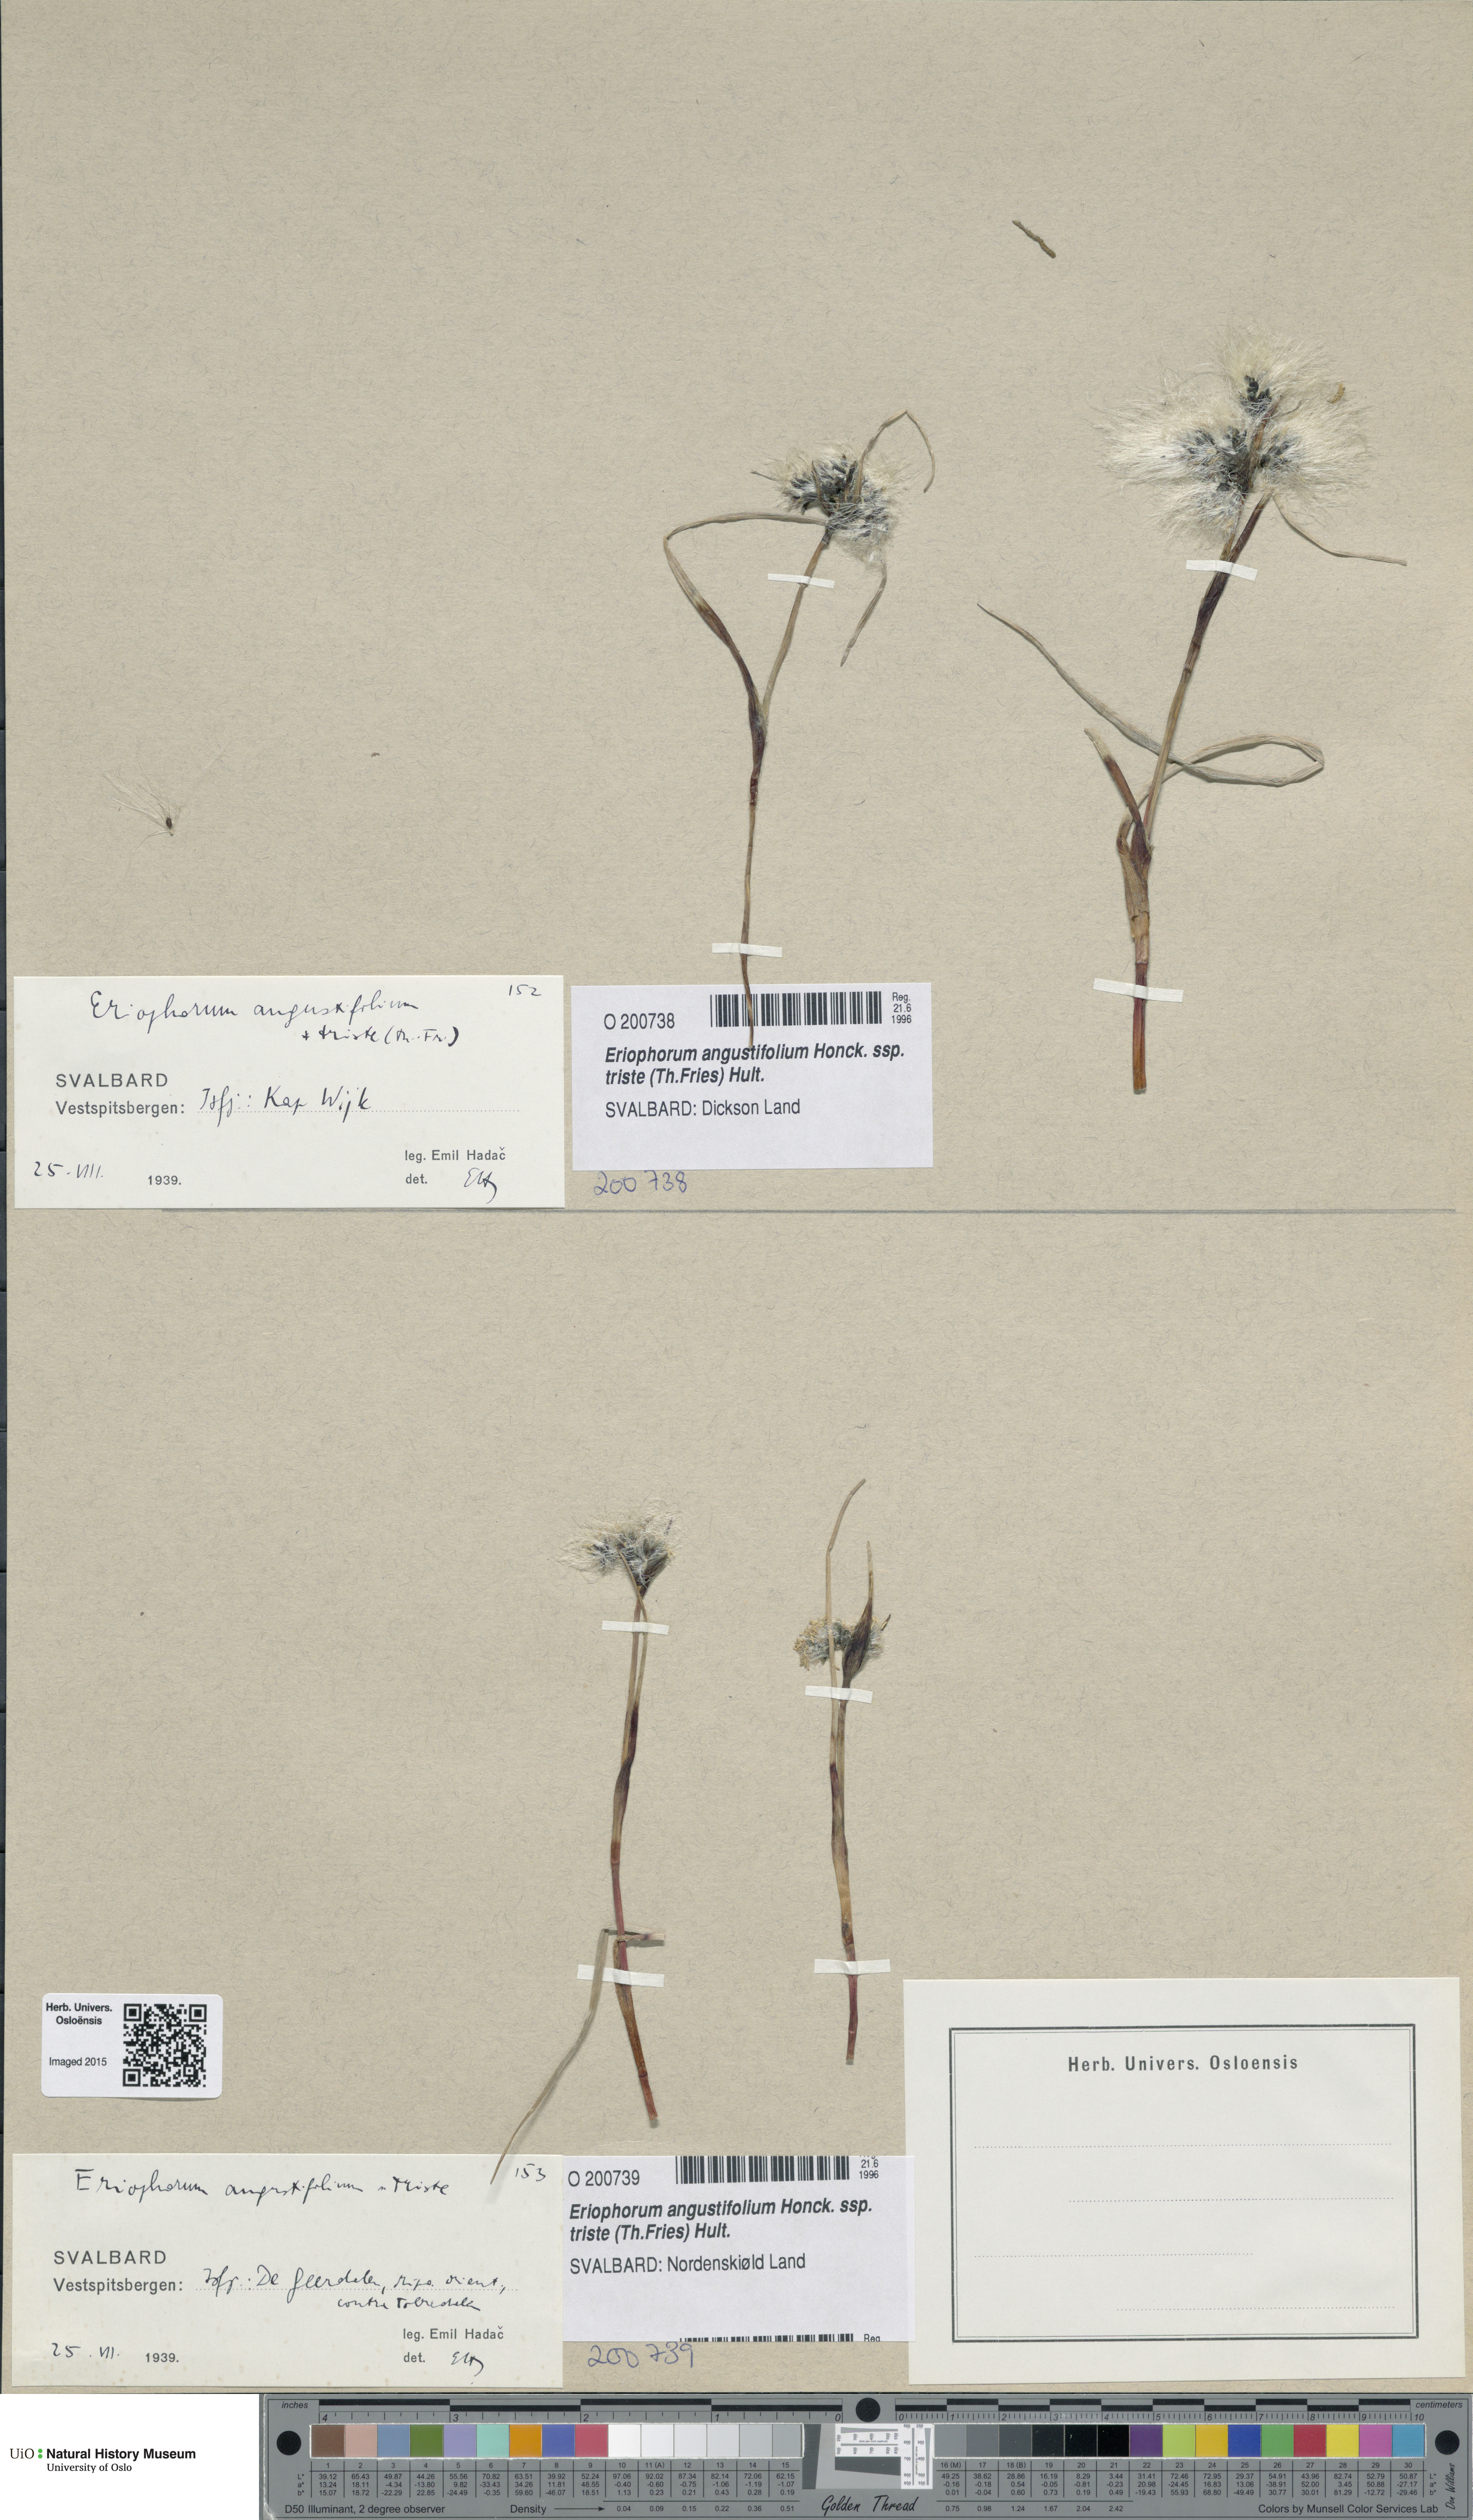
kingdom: Plantae
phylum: Tracheophyta
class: Liliopsida
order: Poales
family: Cyperaceae
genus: Eriophorum
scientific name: Eriophorum triste
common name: Tall cottongrass
